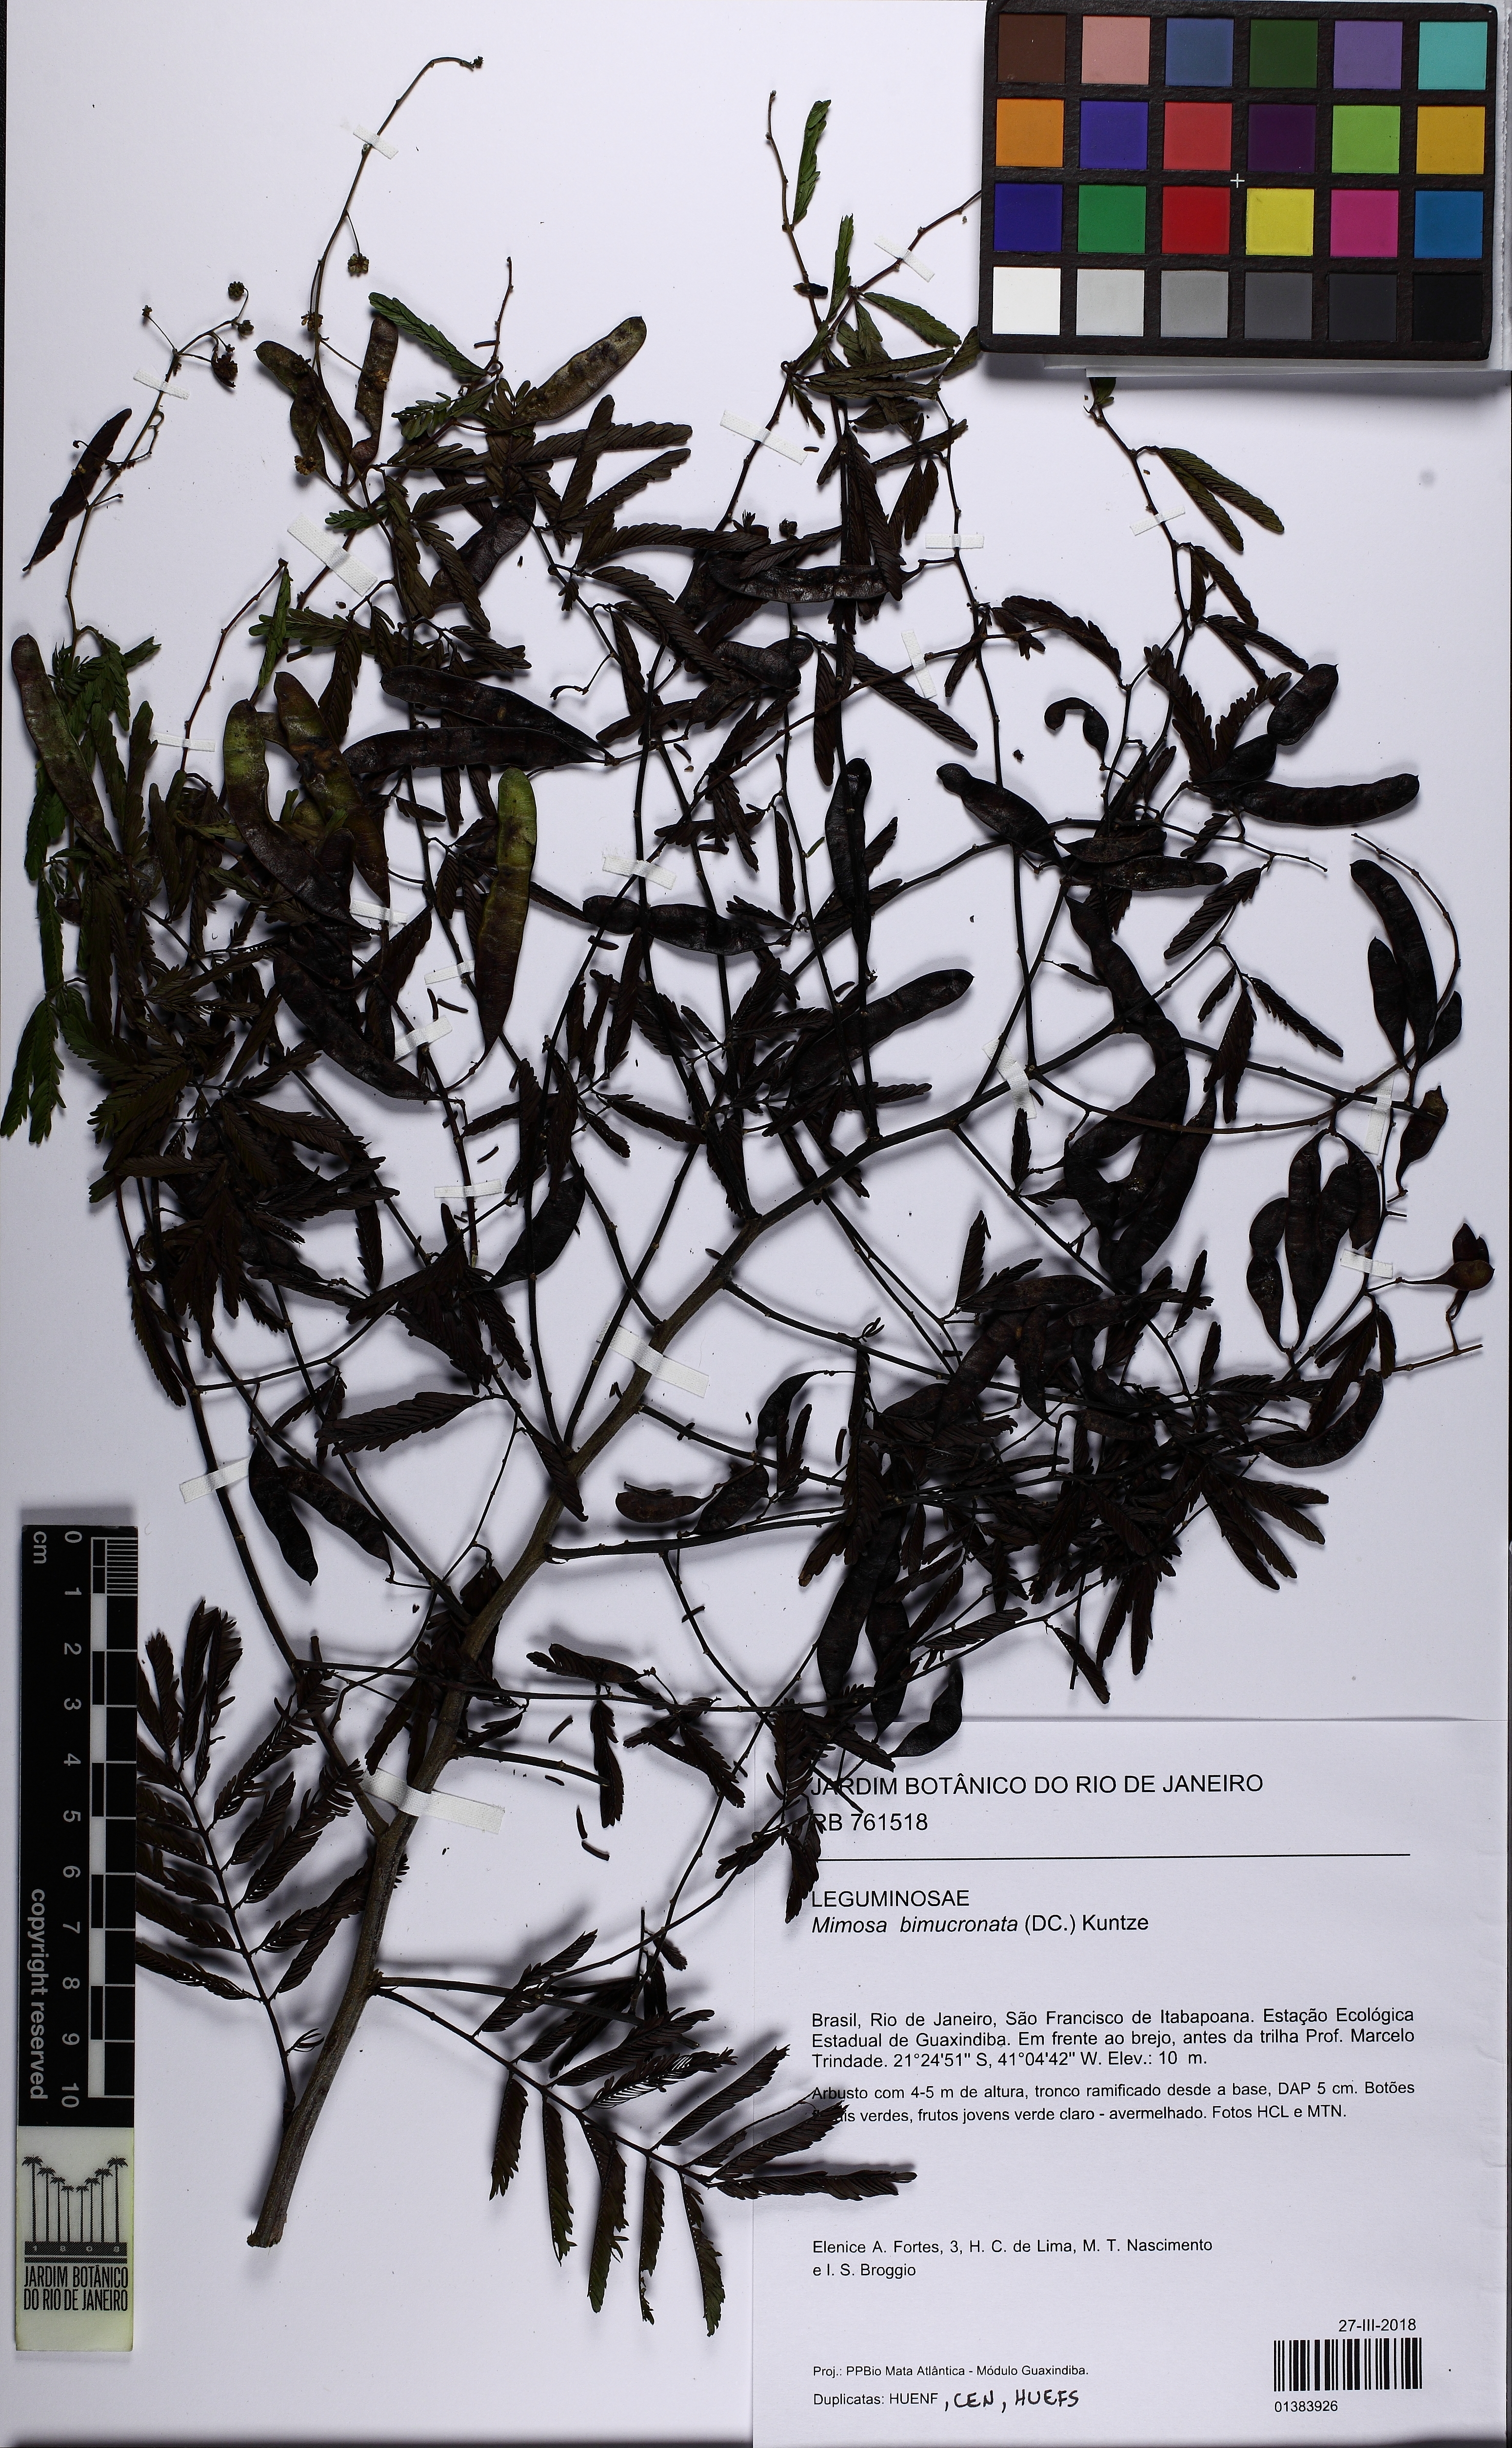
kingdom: Plantae
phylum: Tracheophyta
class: Magnoliopsida
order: Fabales
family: Fabaceae
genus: Mimosa
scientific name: Mimosa bimucronata
